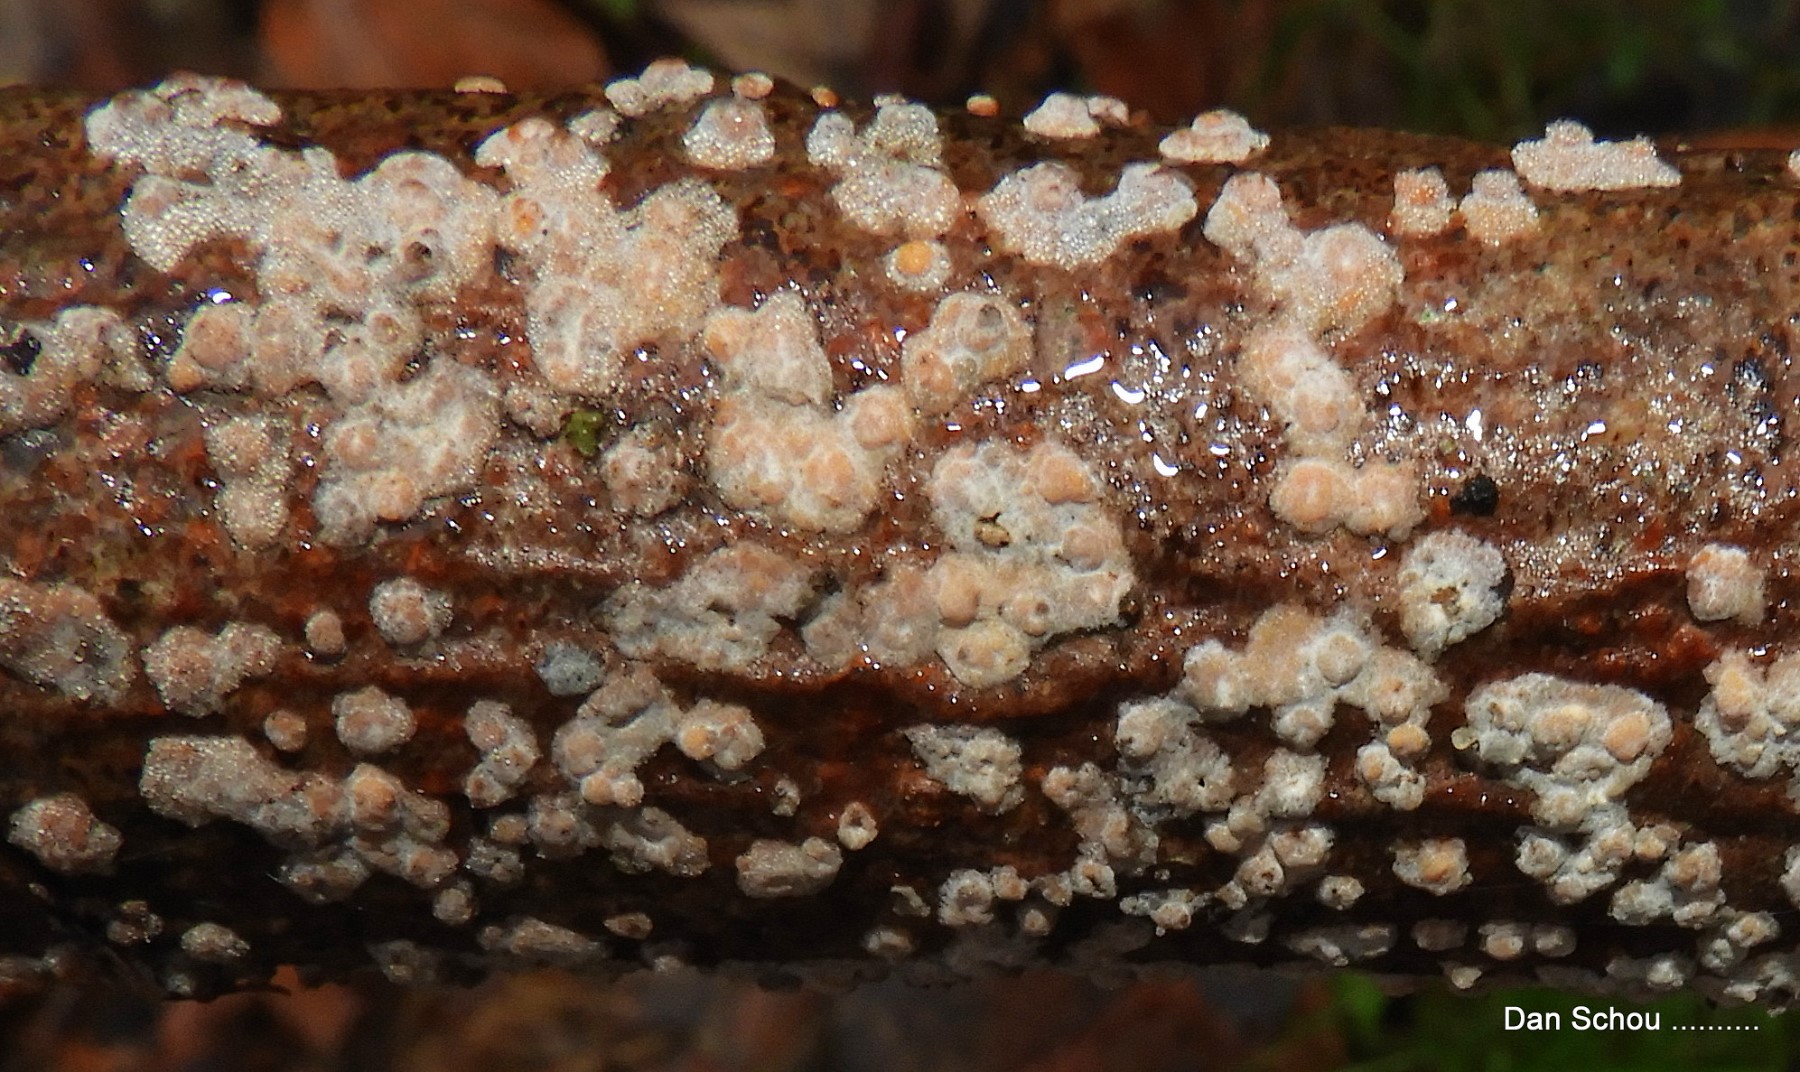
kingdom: Fungi
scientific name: Fungi
